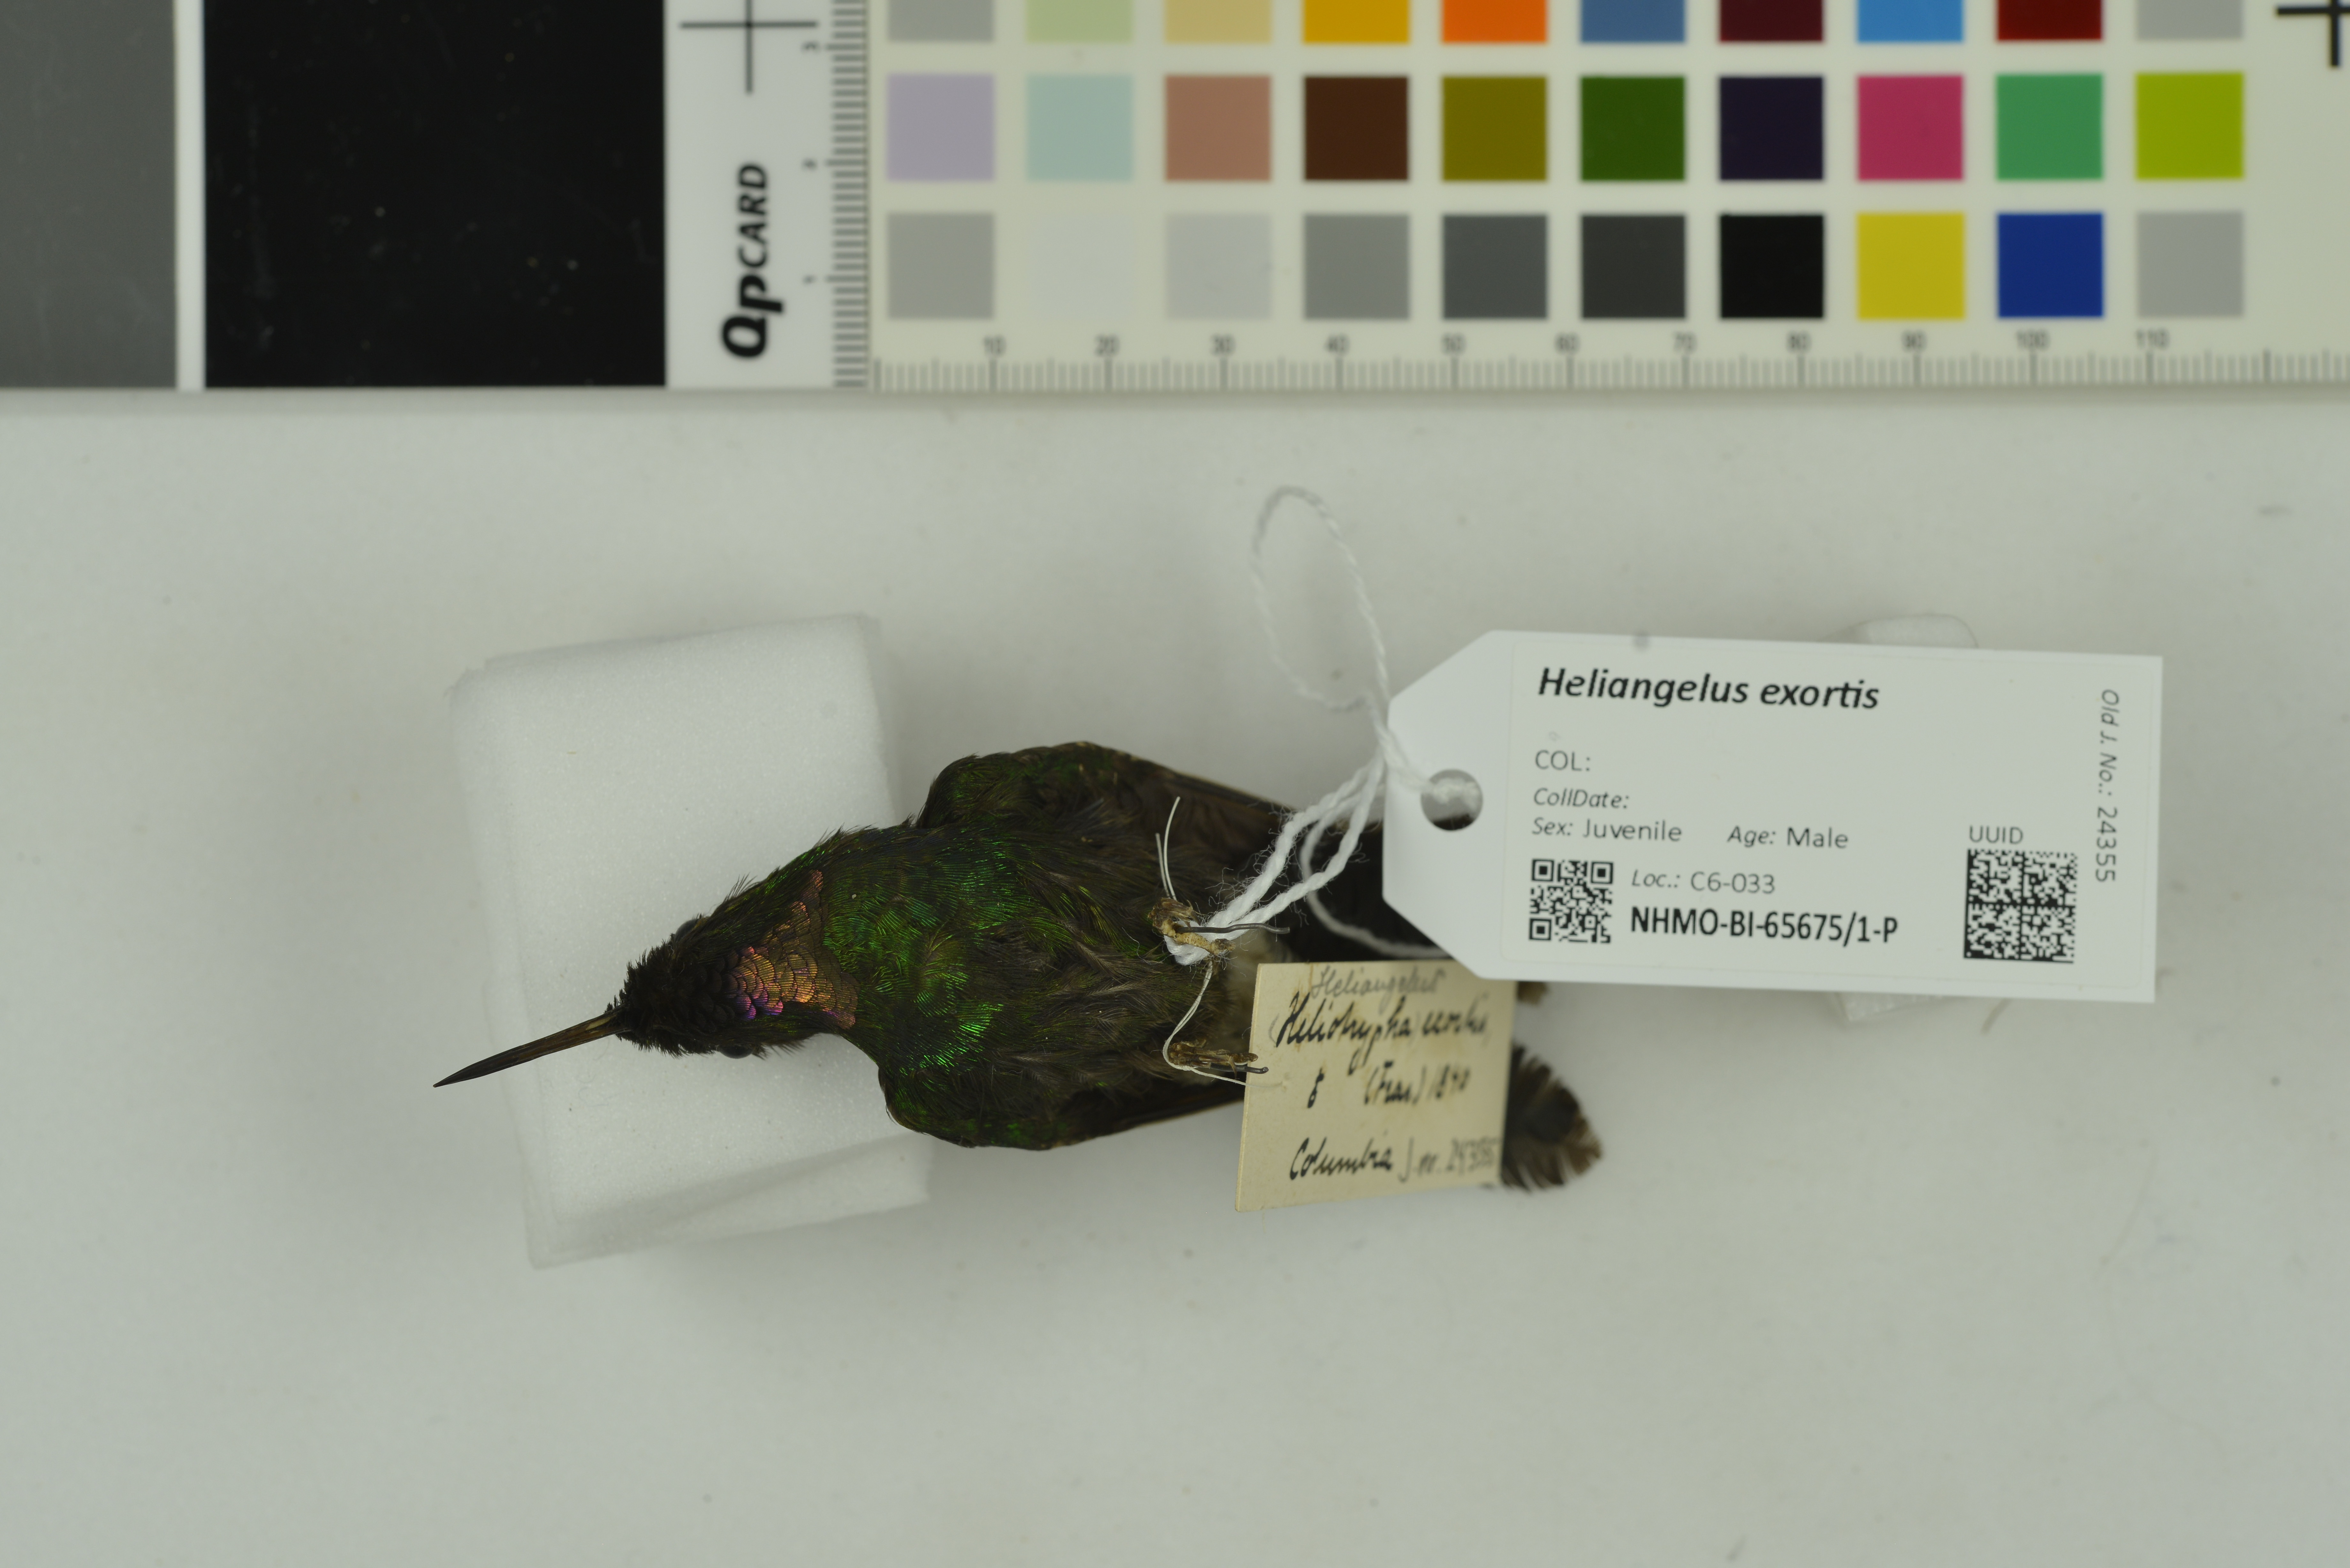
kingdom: Animalia
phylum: Chordata
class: Aves
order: Apodiformes
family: Trochilidae
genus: Heliangelus
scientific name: Heliangelus exortis
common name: Tourmaline sunangel
